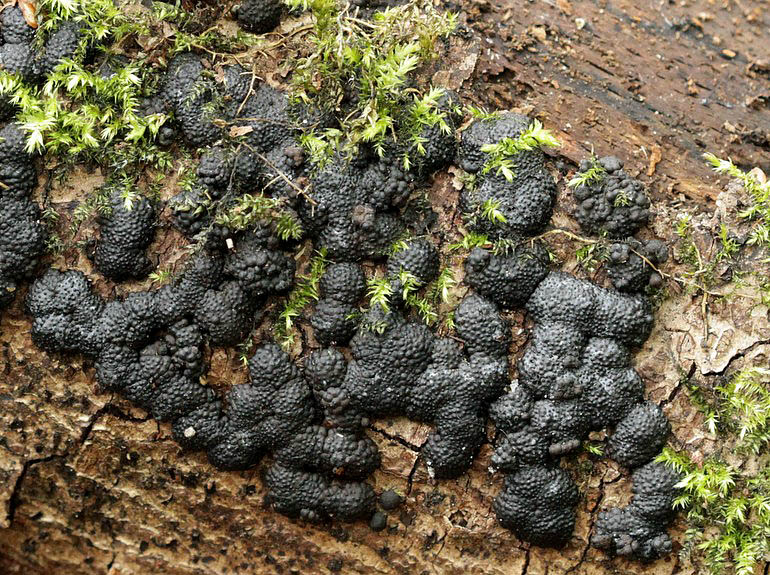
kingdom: Fungi
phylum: Ascomycota
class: Sordariomycetes
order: Xylariales
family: Hypoxylaceae
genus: Jackrogersella
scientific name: Jackrogersella cohaerens
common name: sammenflydende kulbær
